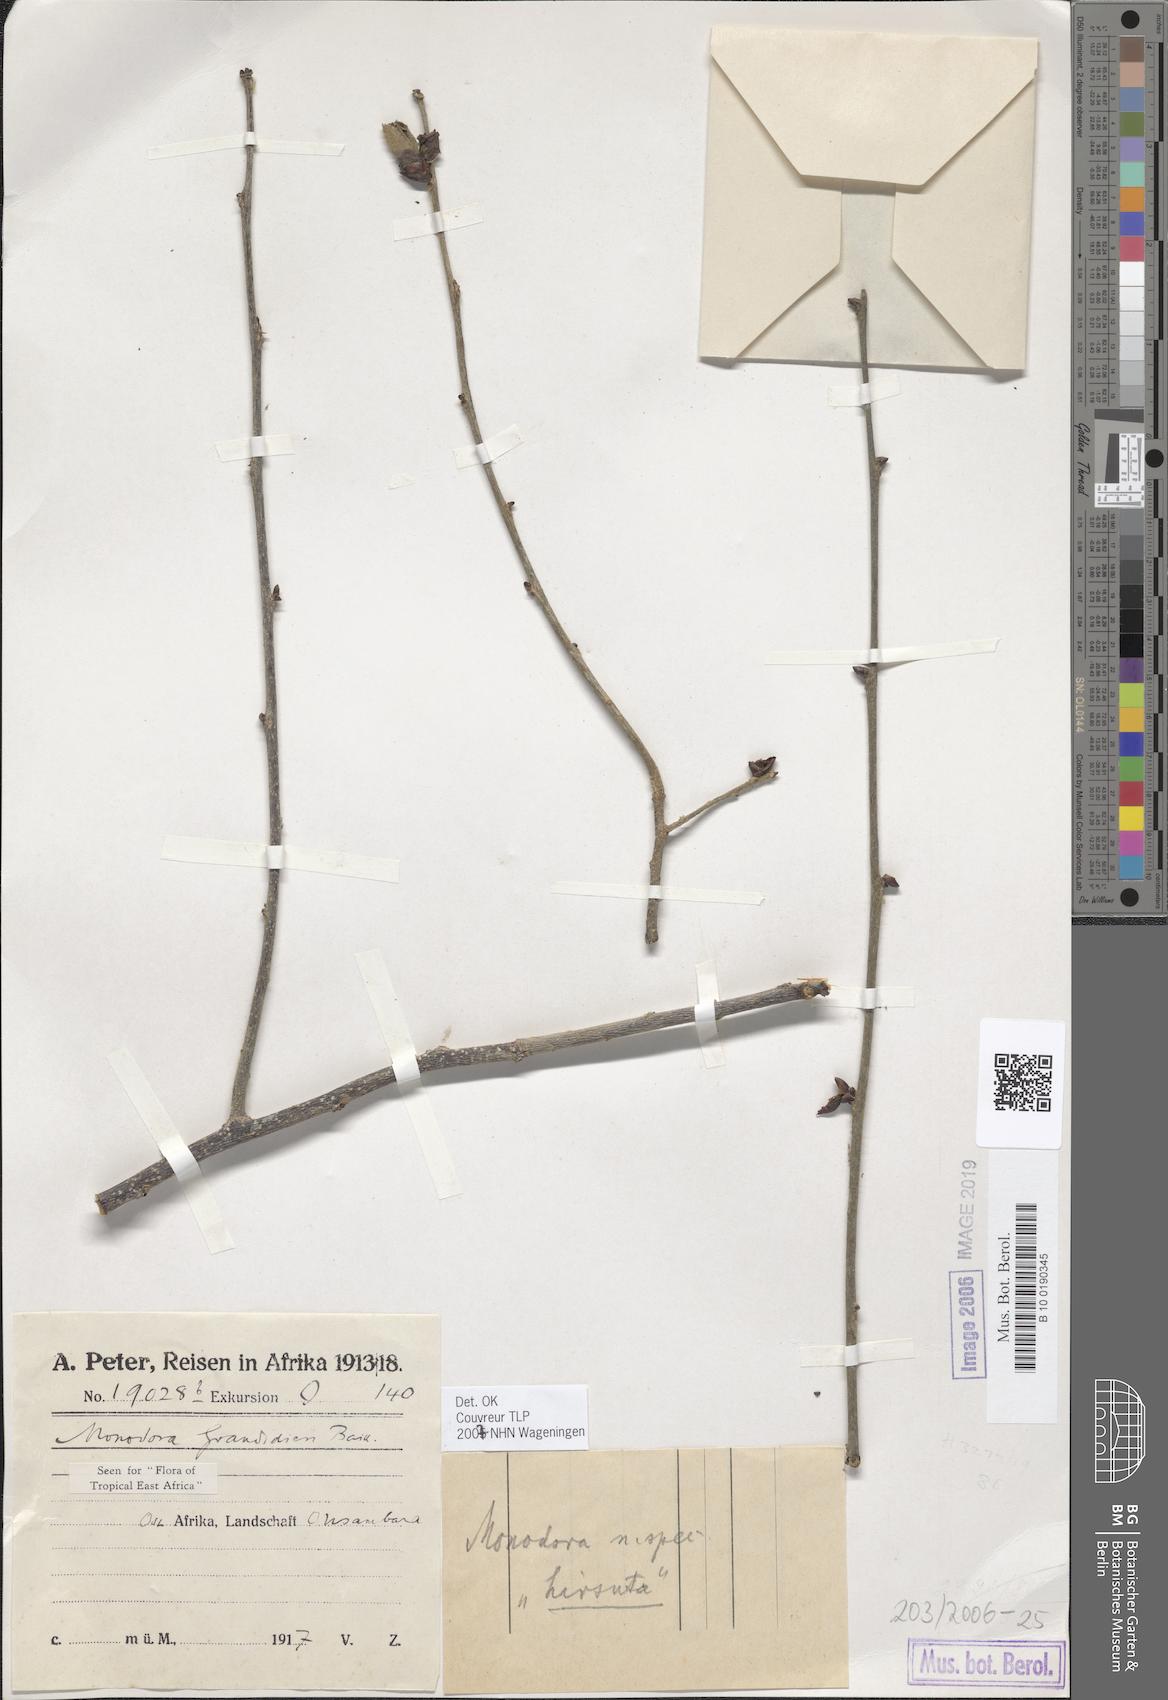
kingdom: Plantae
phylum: Tracheophyta
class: Magnoliopsida
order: Magnoliales
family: Annonaceae
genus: Monodora
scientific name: Monodora grandidieri
